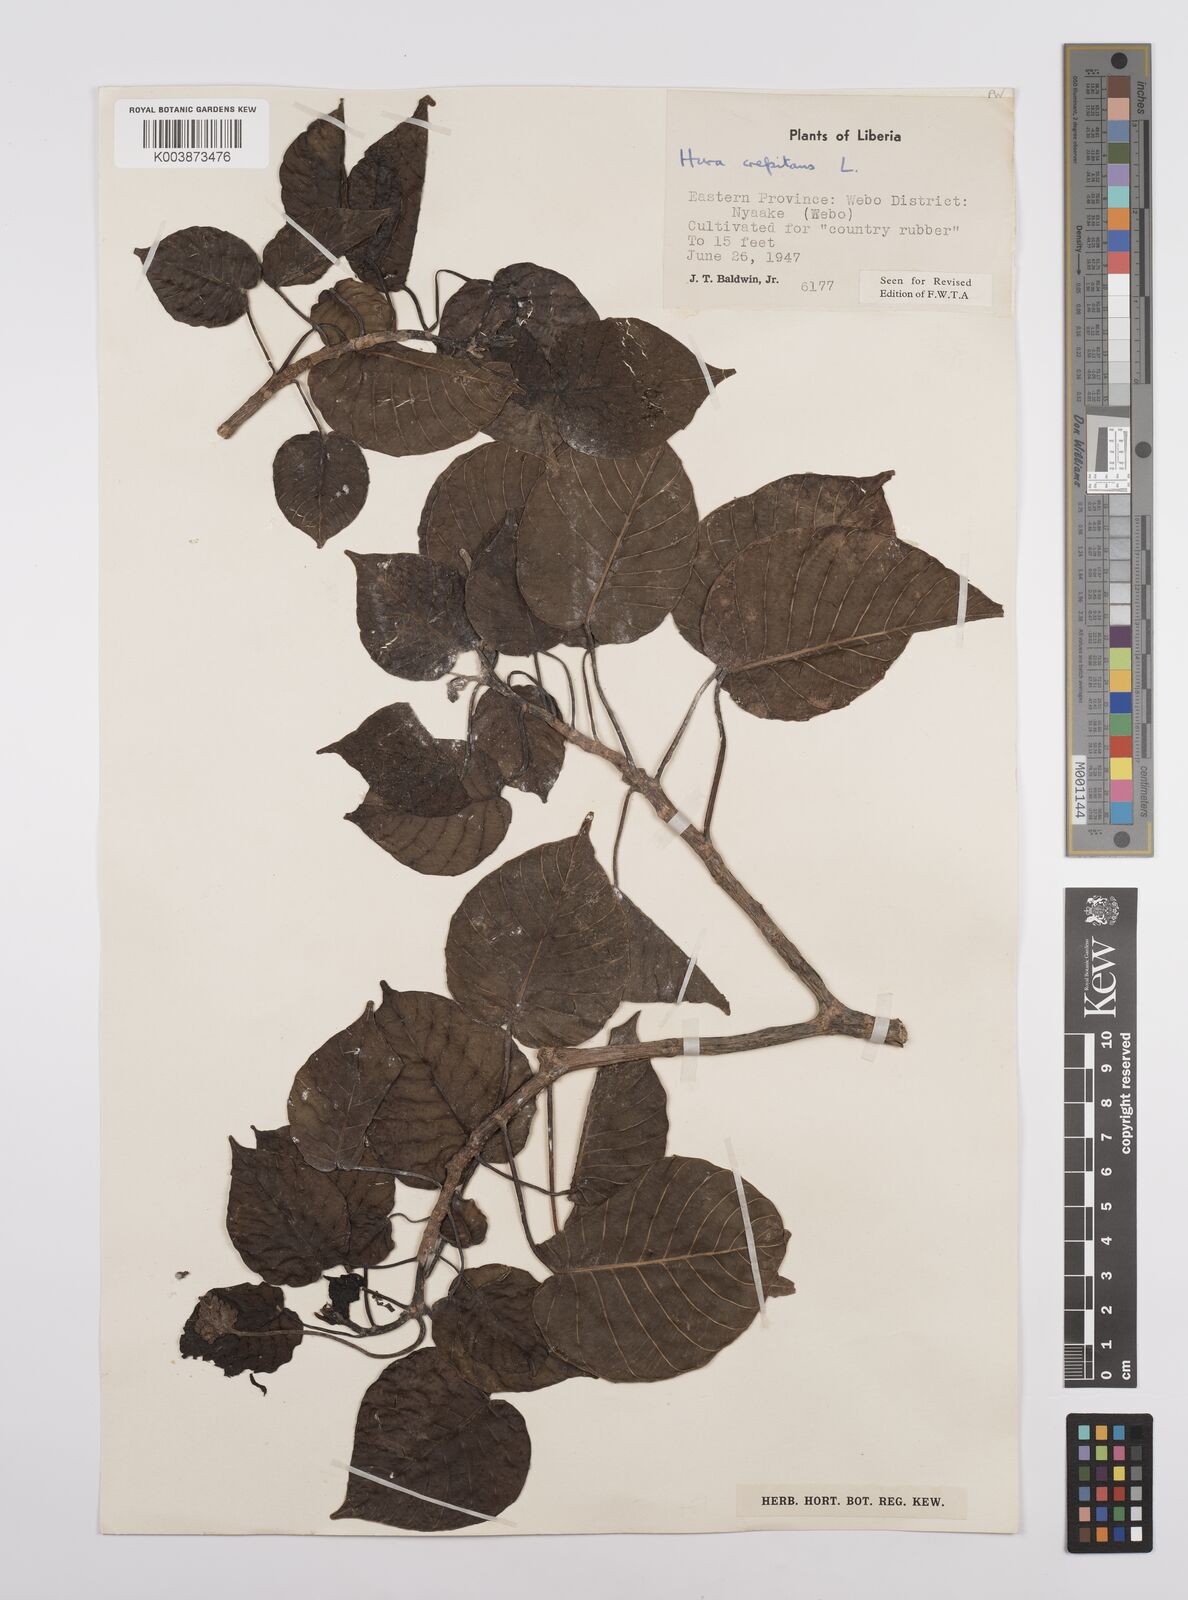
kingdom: Plantae
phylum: Tracheophyta
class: Magnoliopsida
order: Malpighiales
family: Euphorbiaceae
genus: Hura
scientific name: Hura crepitans
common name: Sandboxtree
